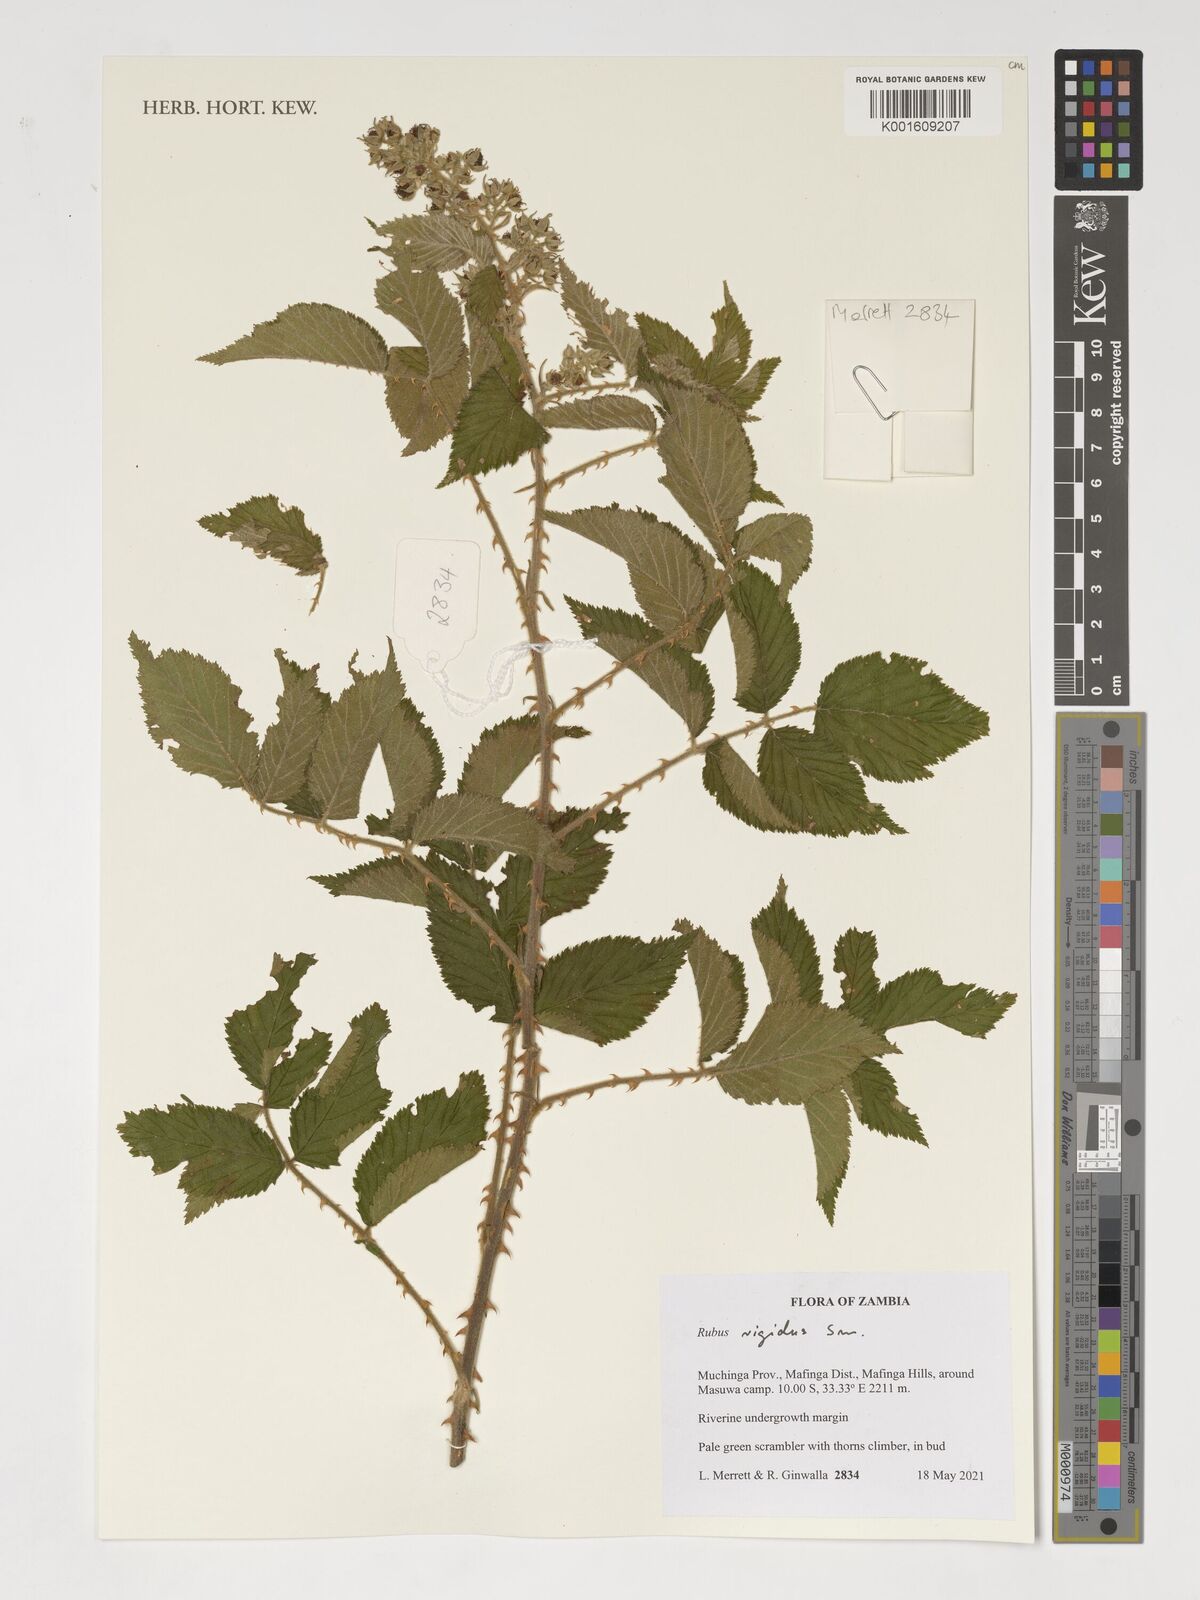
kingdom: Plantae
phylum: Tracheophyta
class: Magnoliopsida
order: Rosales
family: Rosaceae
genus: Rubus
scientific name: Rubus rigidus
